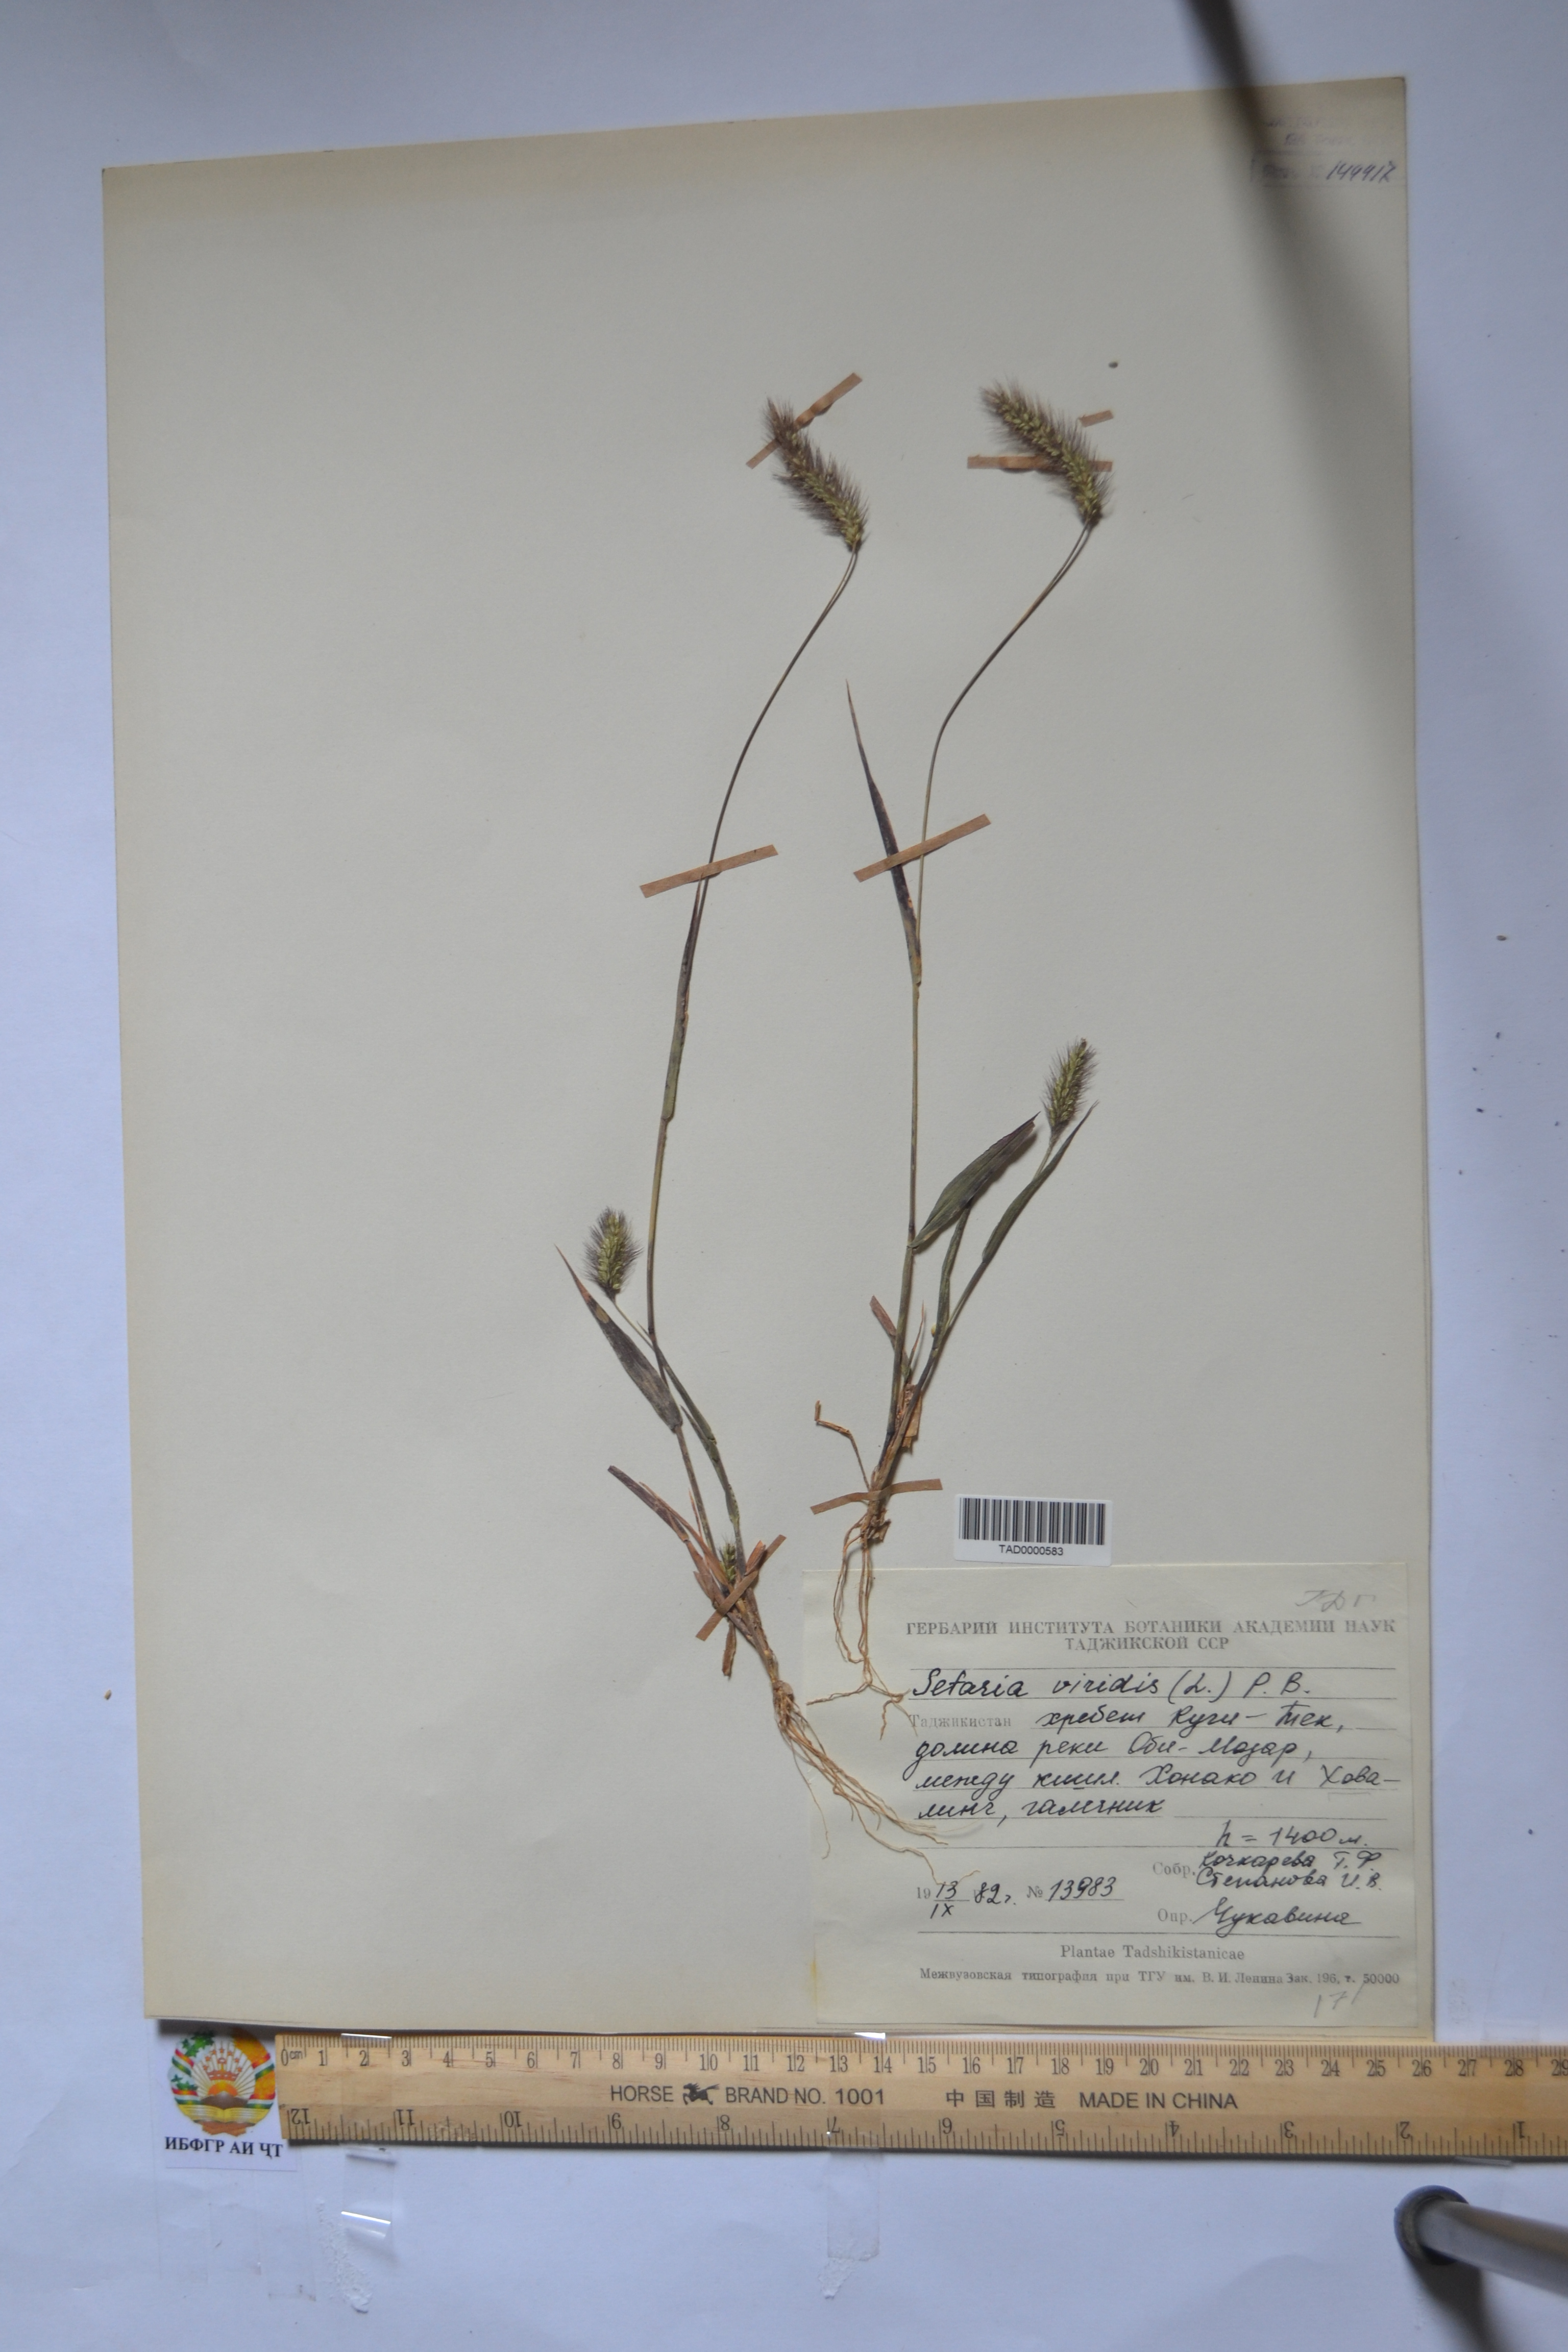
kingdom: Plantae
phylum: Tracheophyta
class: Liliopsida
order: Poales
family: Poaceae
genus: Setaria
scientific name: Setaria viridis
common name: Green bristlegrass
